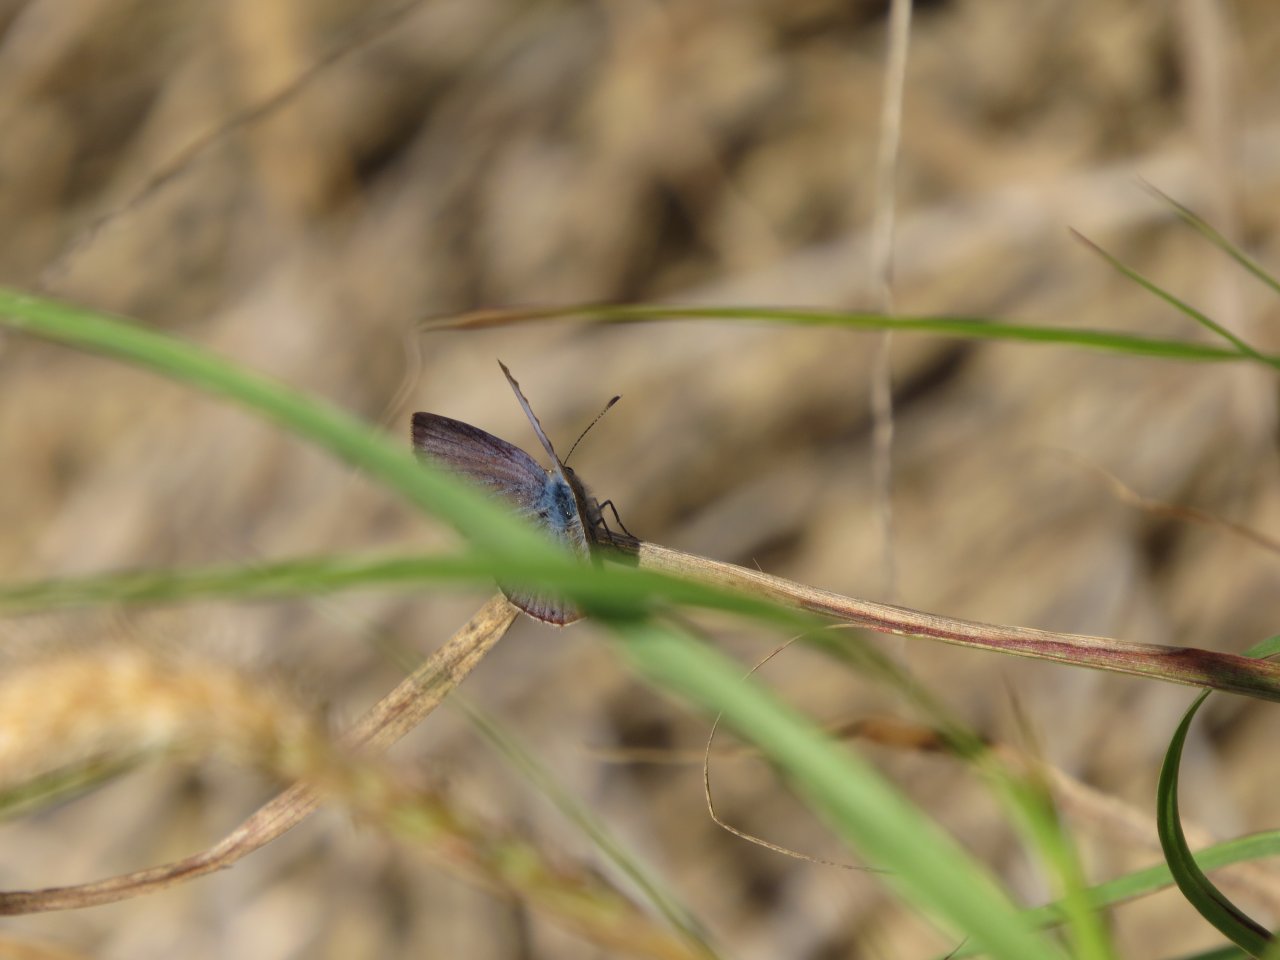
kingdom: Animalia
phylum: Arthropoda
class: Insecta
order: Lepidoptera
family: Lycaenidae
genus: Hemiargus
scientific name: Hemiargus ceraunus
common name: Ceraunus Blue
